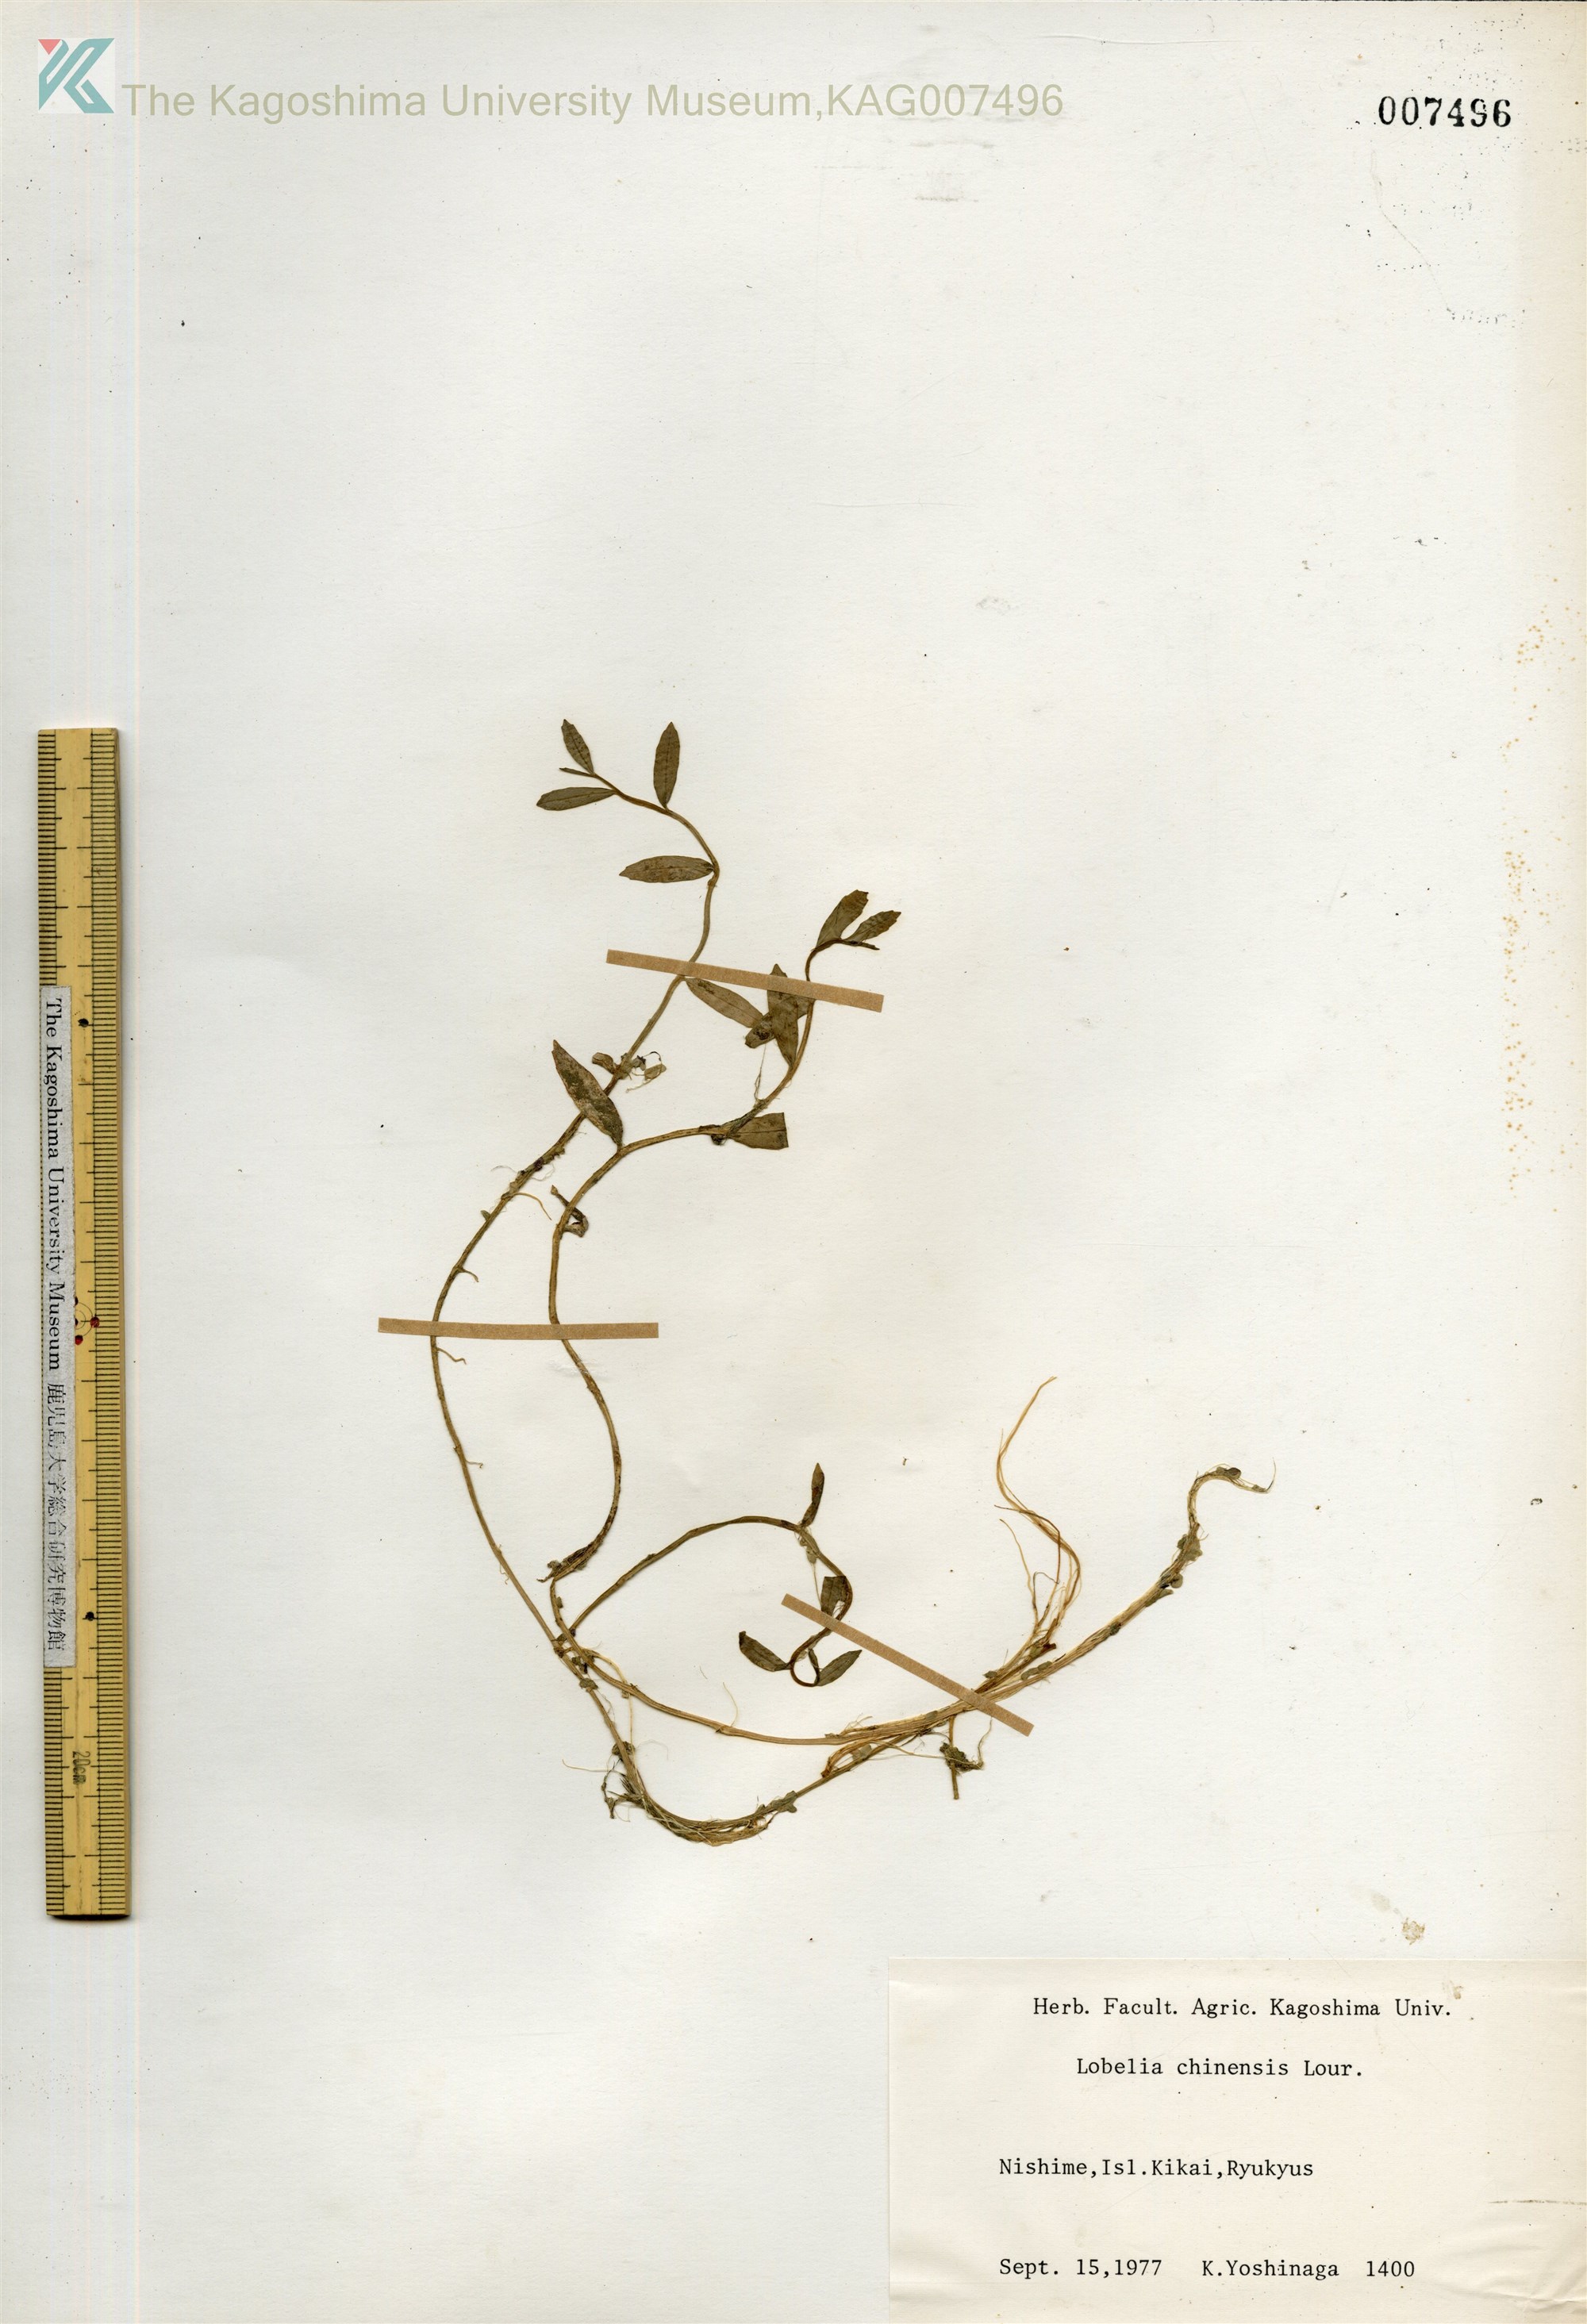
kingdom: Plantae
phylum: Tracheophyta
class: Magnoliopsida
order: Asterales
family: Campanulaceae
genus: Lobelia
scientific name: Lobelia chinensis
